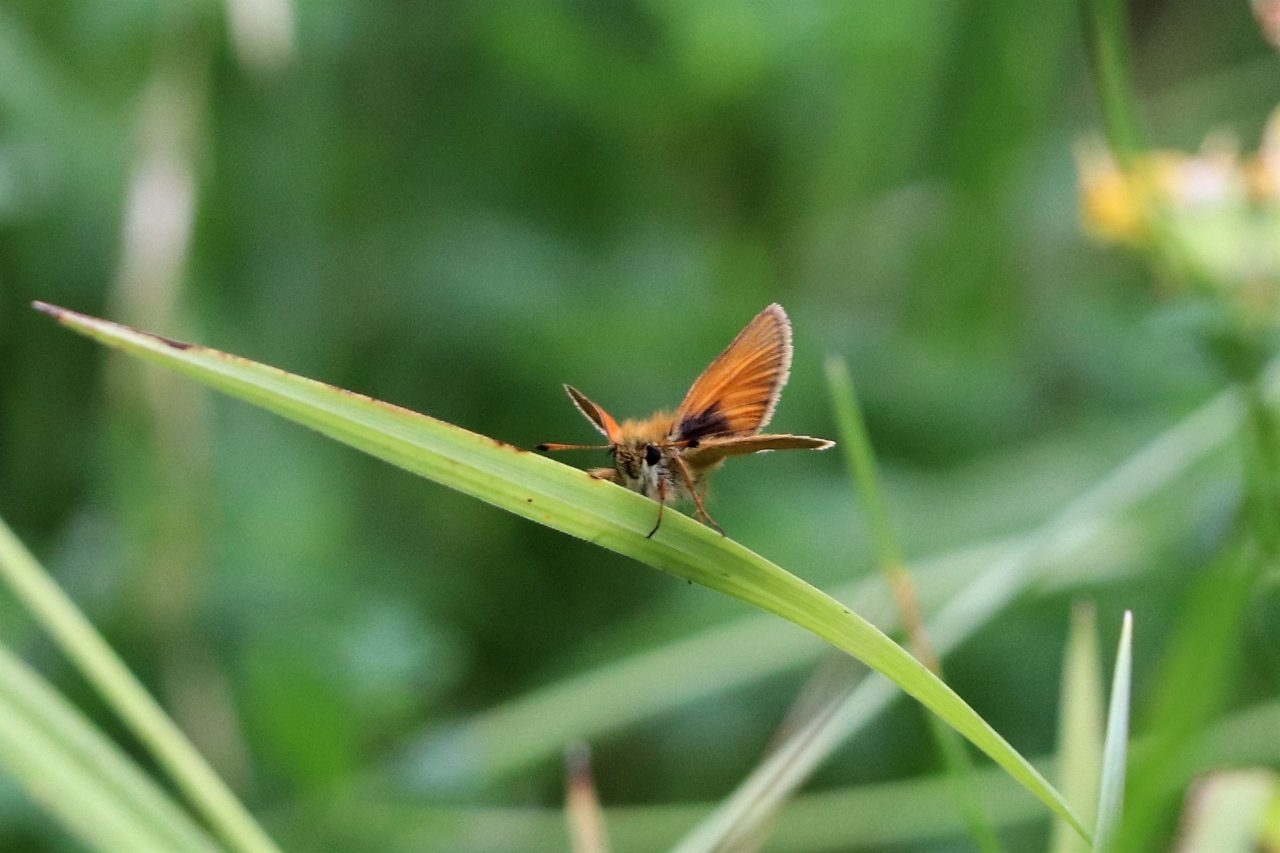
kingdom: Animalia
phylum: Arthropoda
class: Insecta
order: Lepidoptera
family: Hesperiidae
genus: Thymelicus
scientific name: Thymelicus lineola
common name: European Skipper
